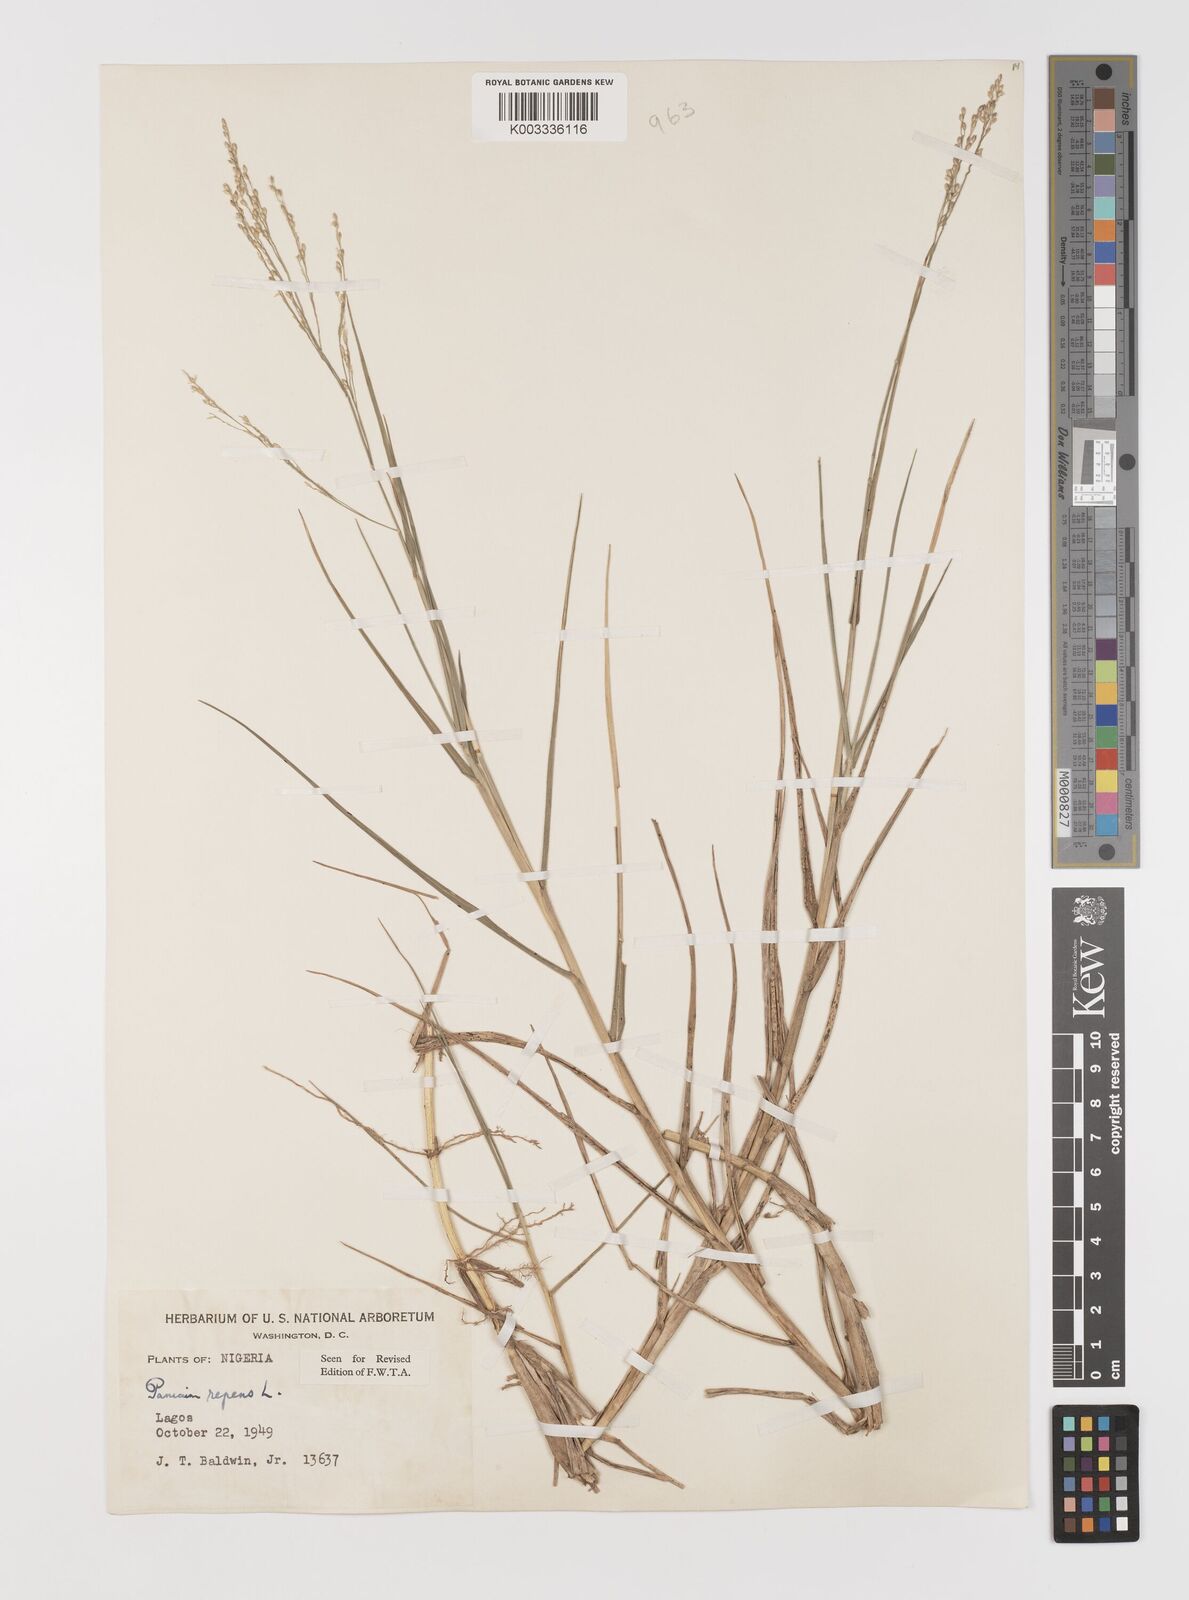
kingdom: Plantae
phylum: Tracheophyta
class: Liliopsida
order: Poales
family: Poaceae
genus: Panicum
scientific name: Panicum repens
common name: Torpedo grass
